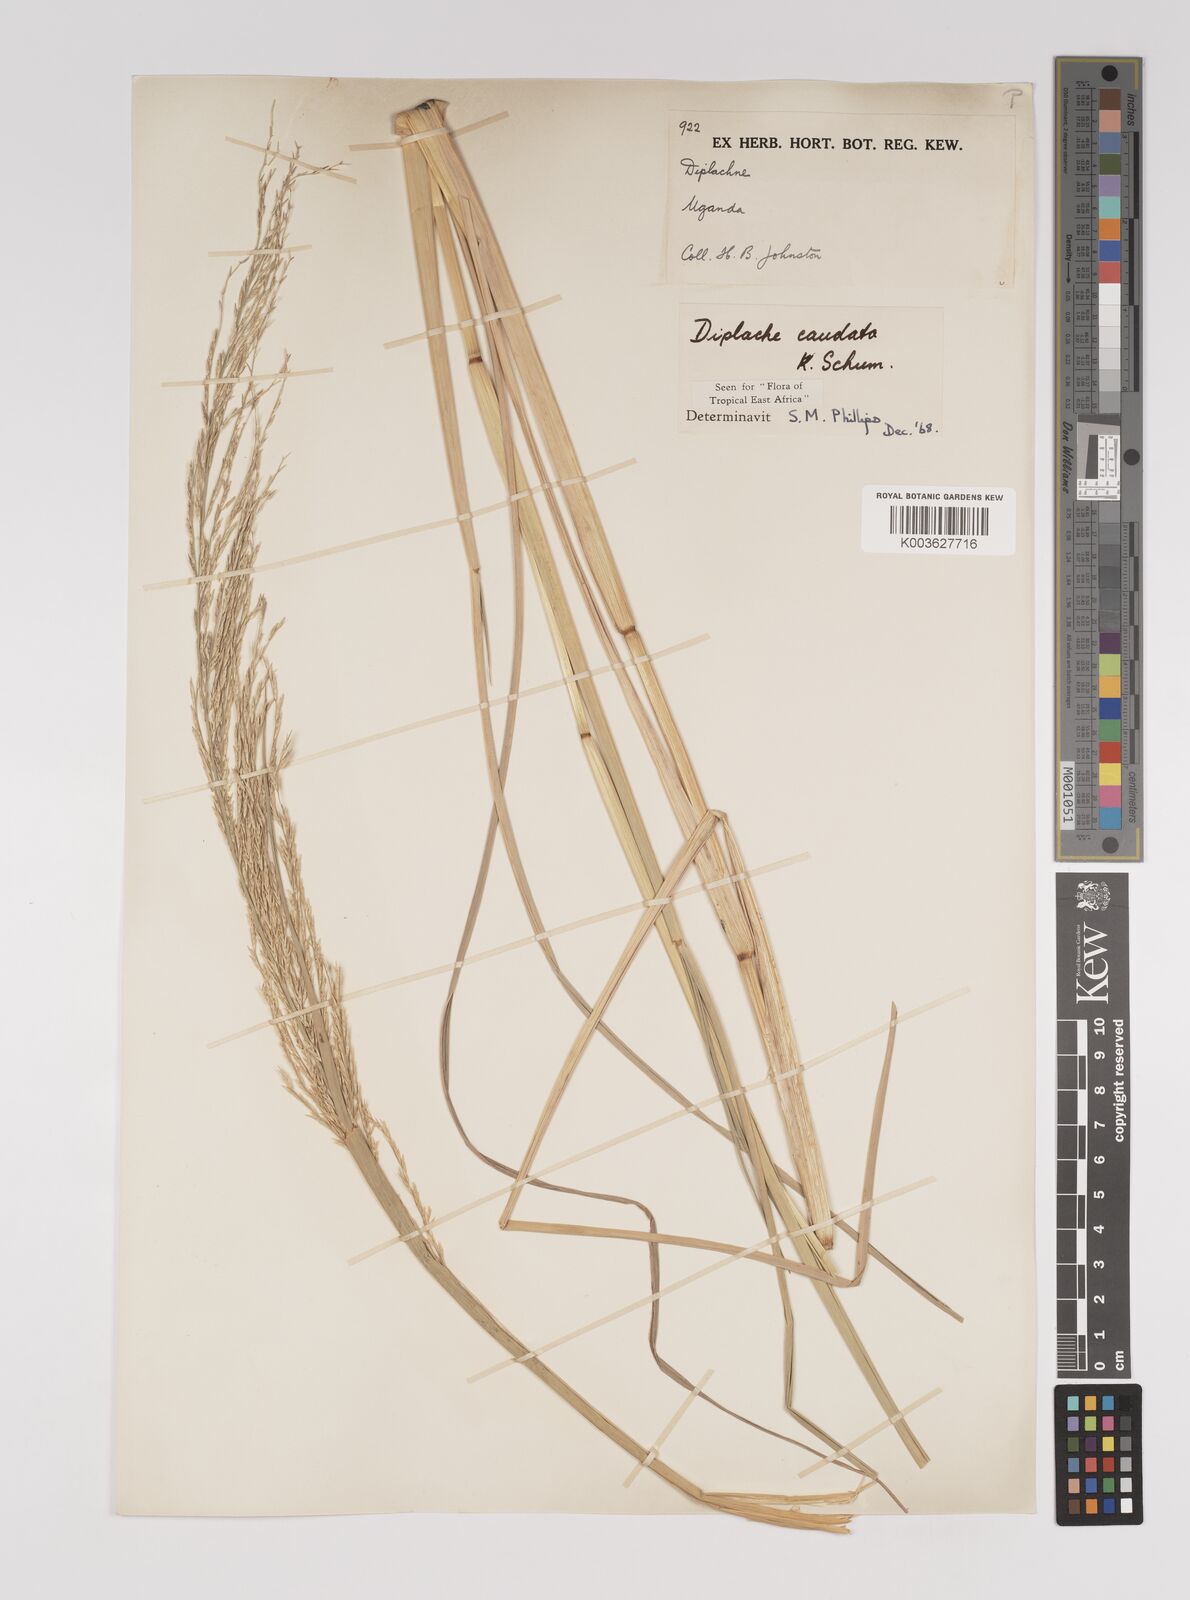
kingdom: Plantae
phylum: Tracheophyta
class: Liliopsida
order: Poales
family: Poaceae
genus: Leptochloa
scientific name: Leptochloa caudata
